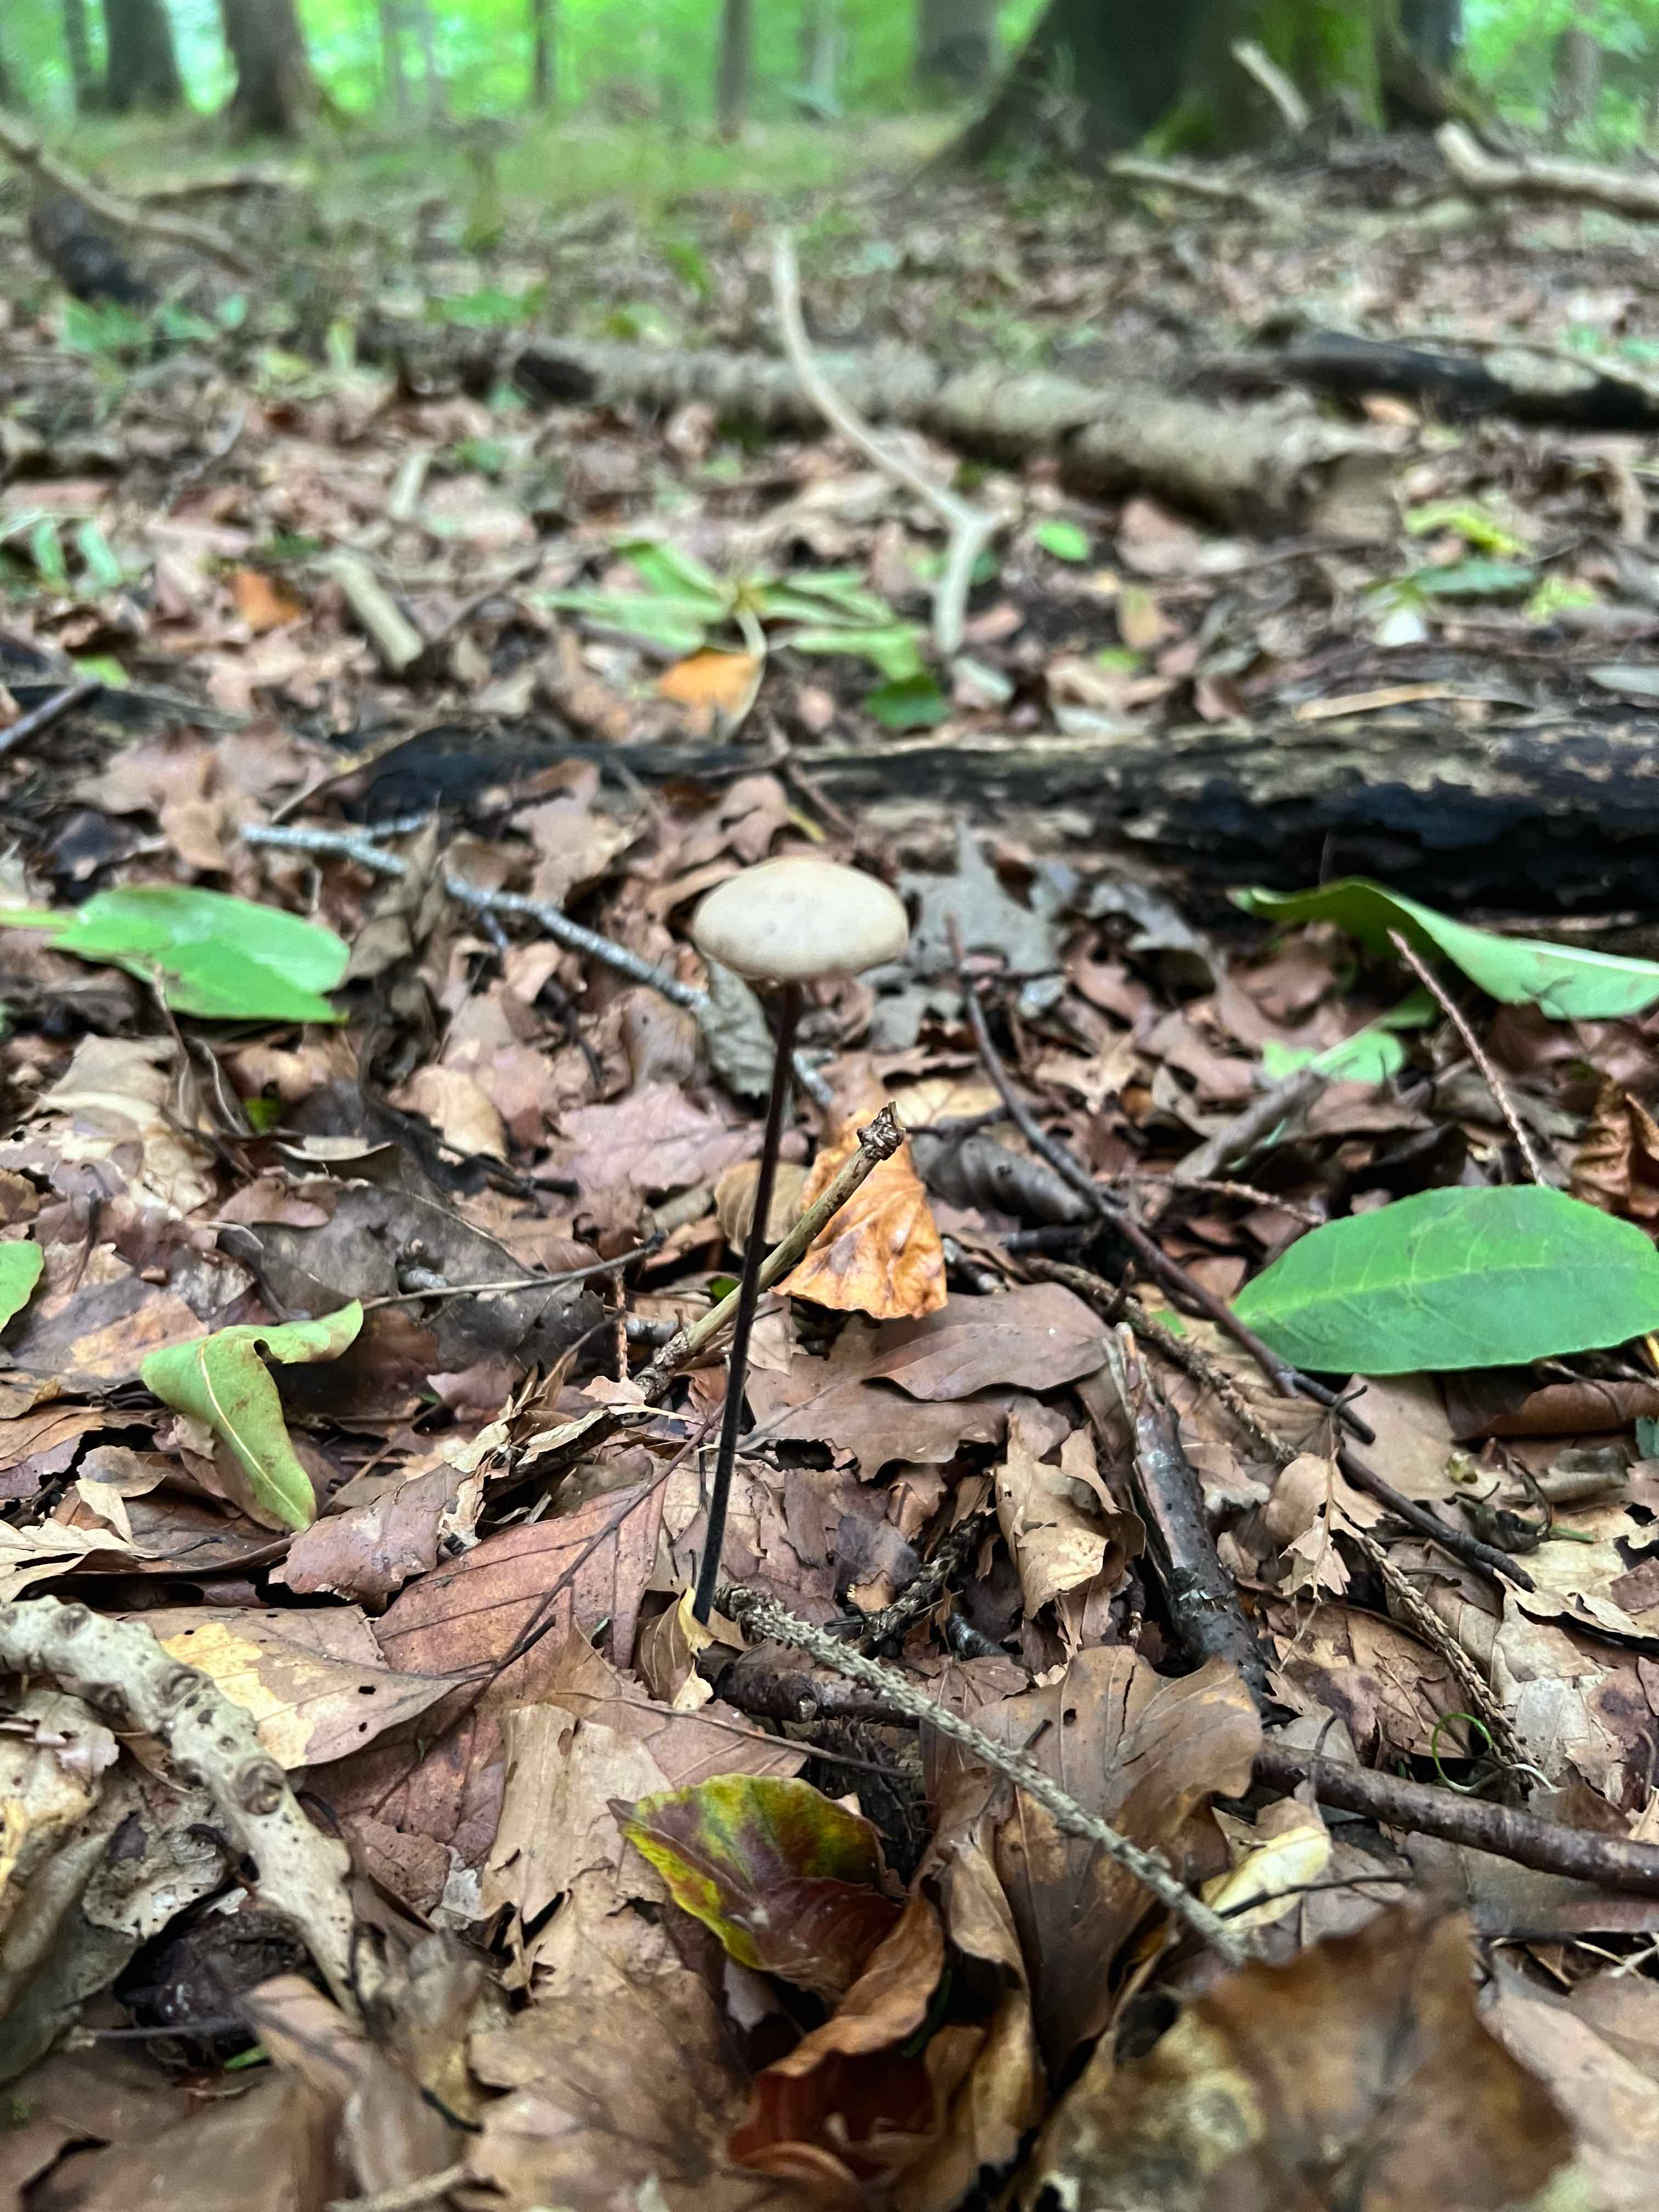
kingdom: Fungi
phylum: Basidiomycota
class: Agaricomycetes
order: Agaricales
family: Omphalotaceae
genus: Mycetinis
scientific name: Mycetinis alliaceus
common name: stor løghat
